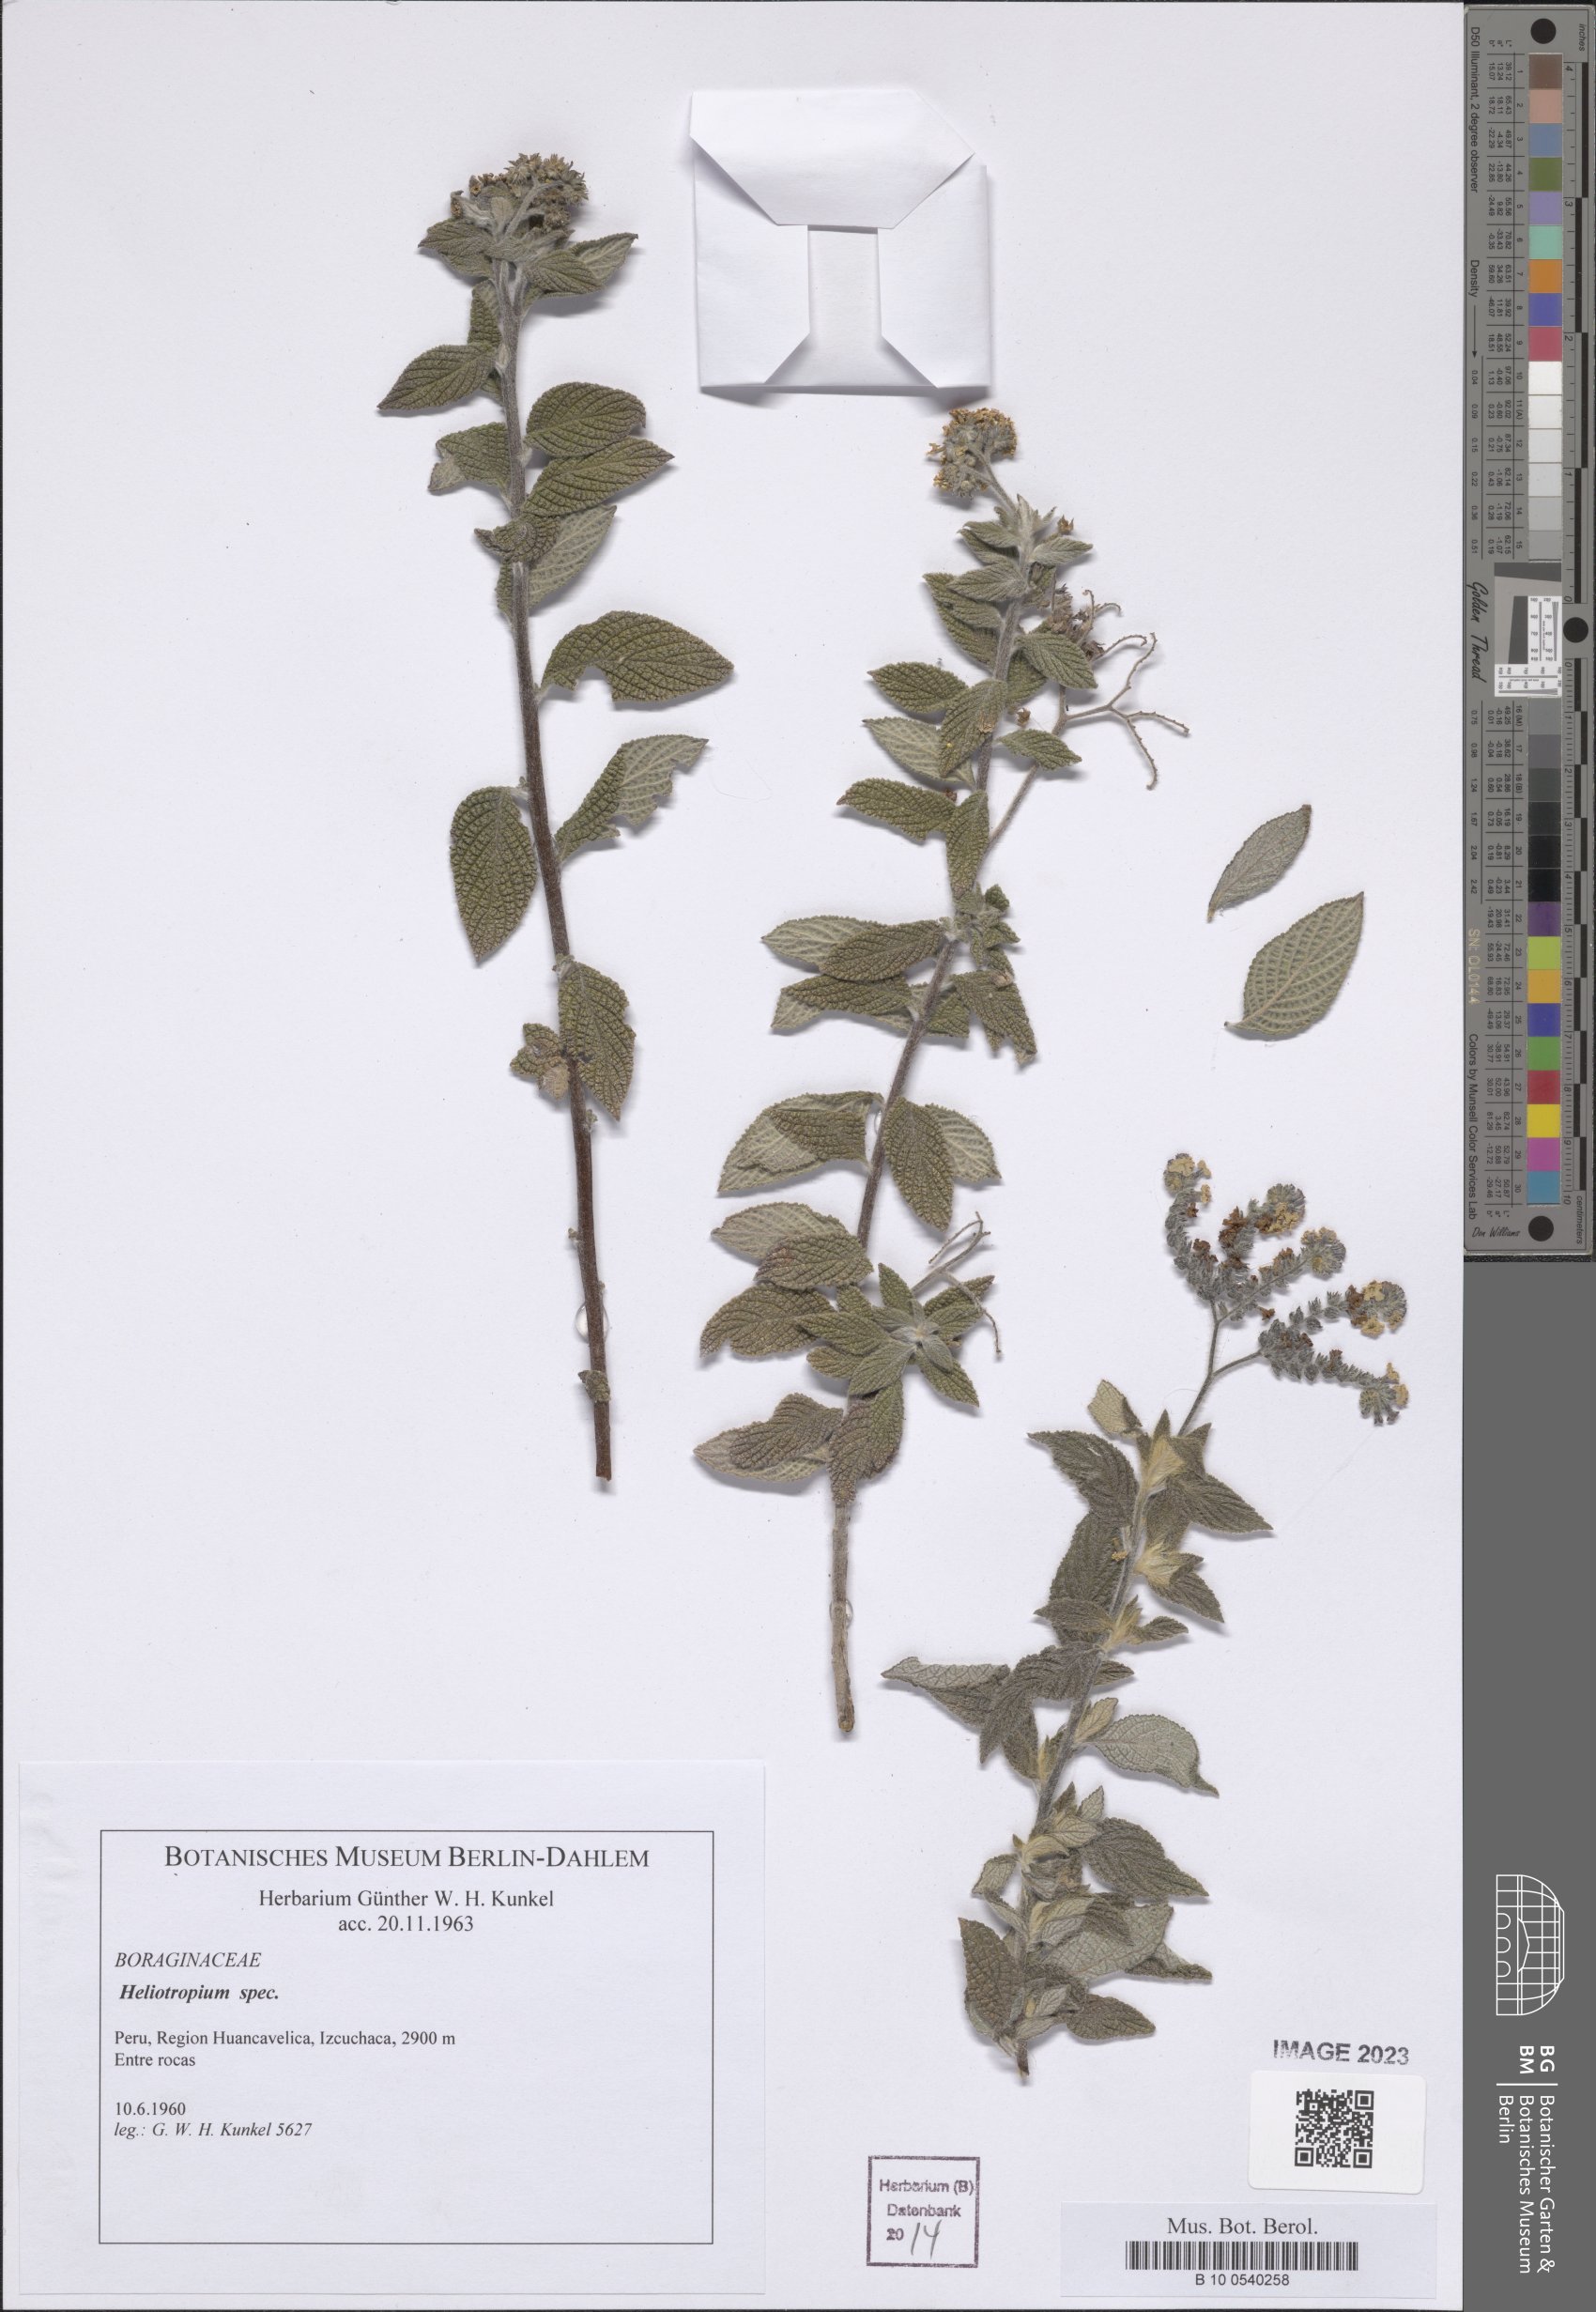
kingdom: Plantae
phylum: Tracheophyta
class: Magnoliopsida
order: Boraginales
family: Heliotropiaceae
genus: Heliotropium
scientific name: Heliotropium
